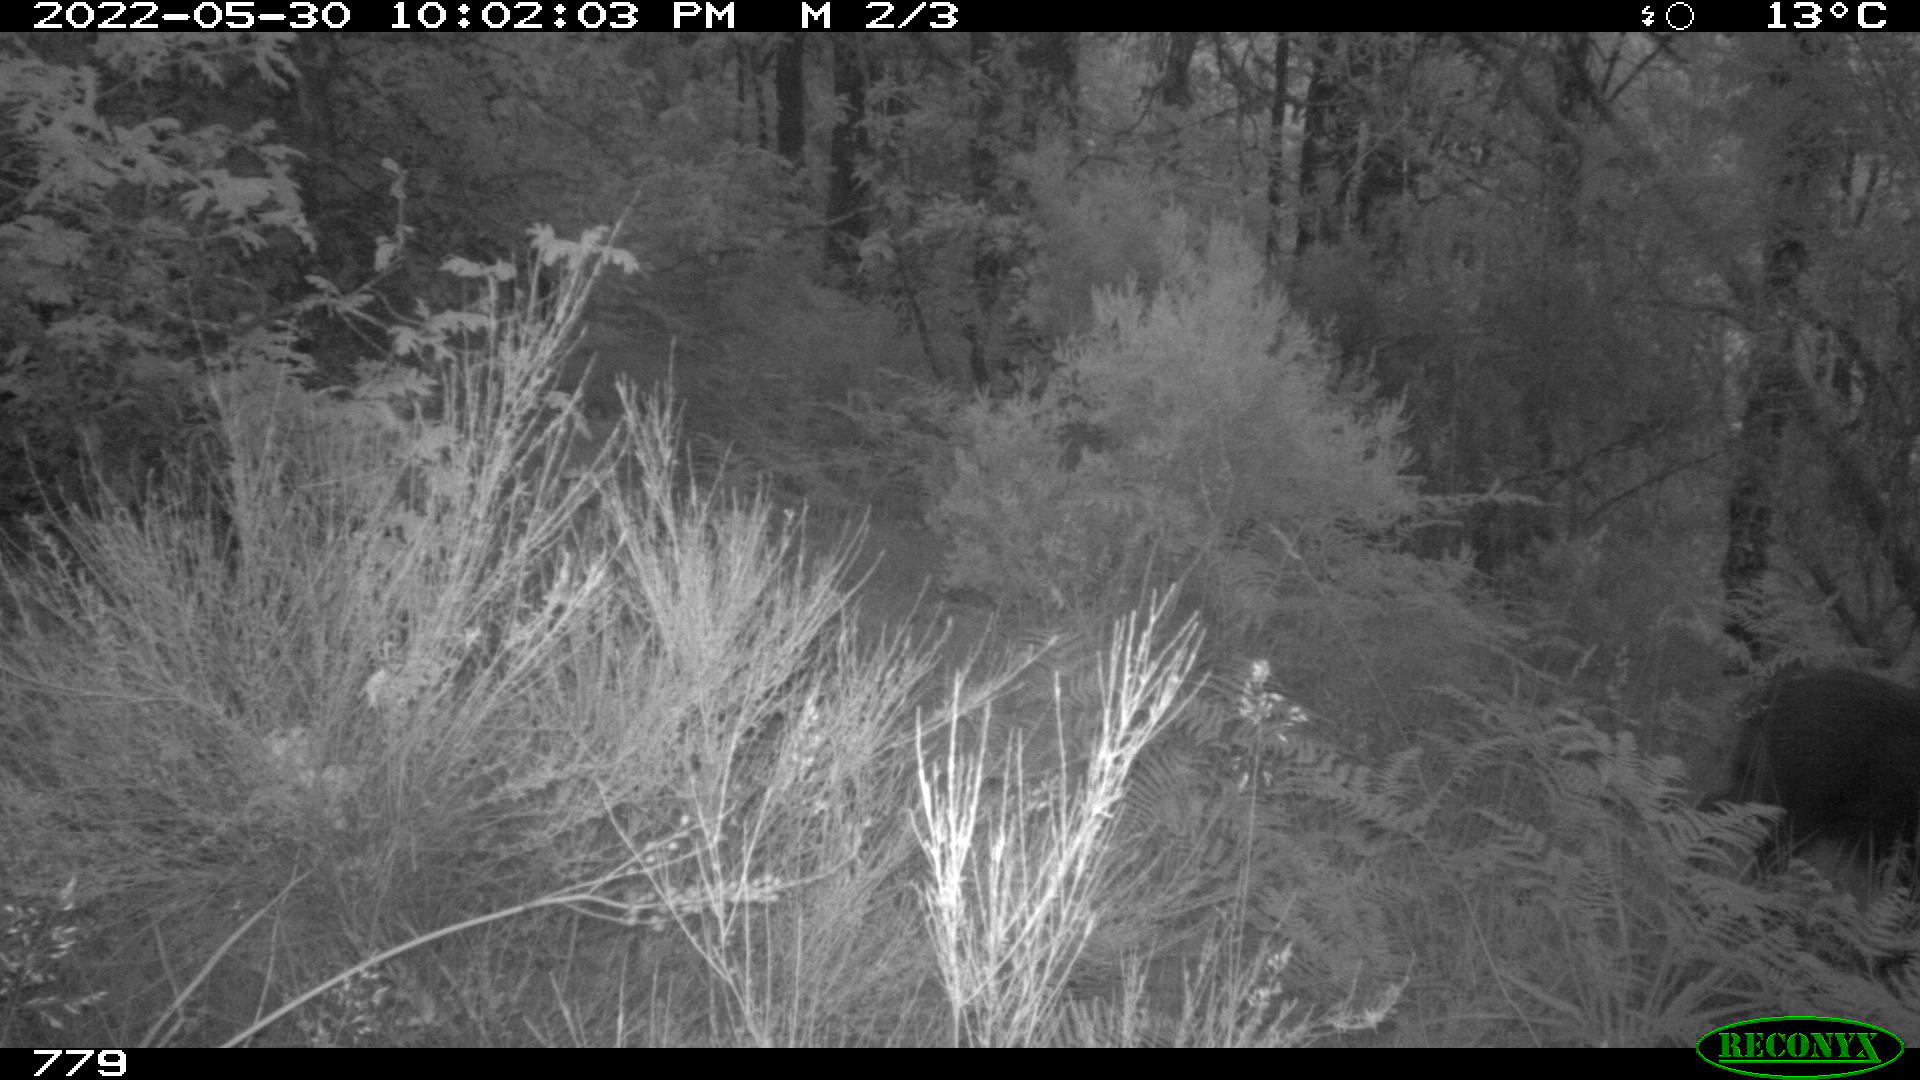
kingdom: Animalia
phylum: Chordata
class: Mammalia
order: Artiodactyla
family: Suidae
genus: Sus
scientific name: Sus scrofa
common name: Wild boar
